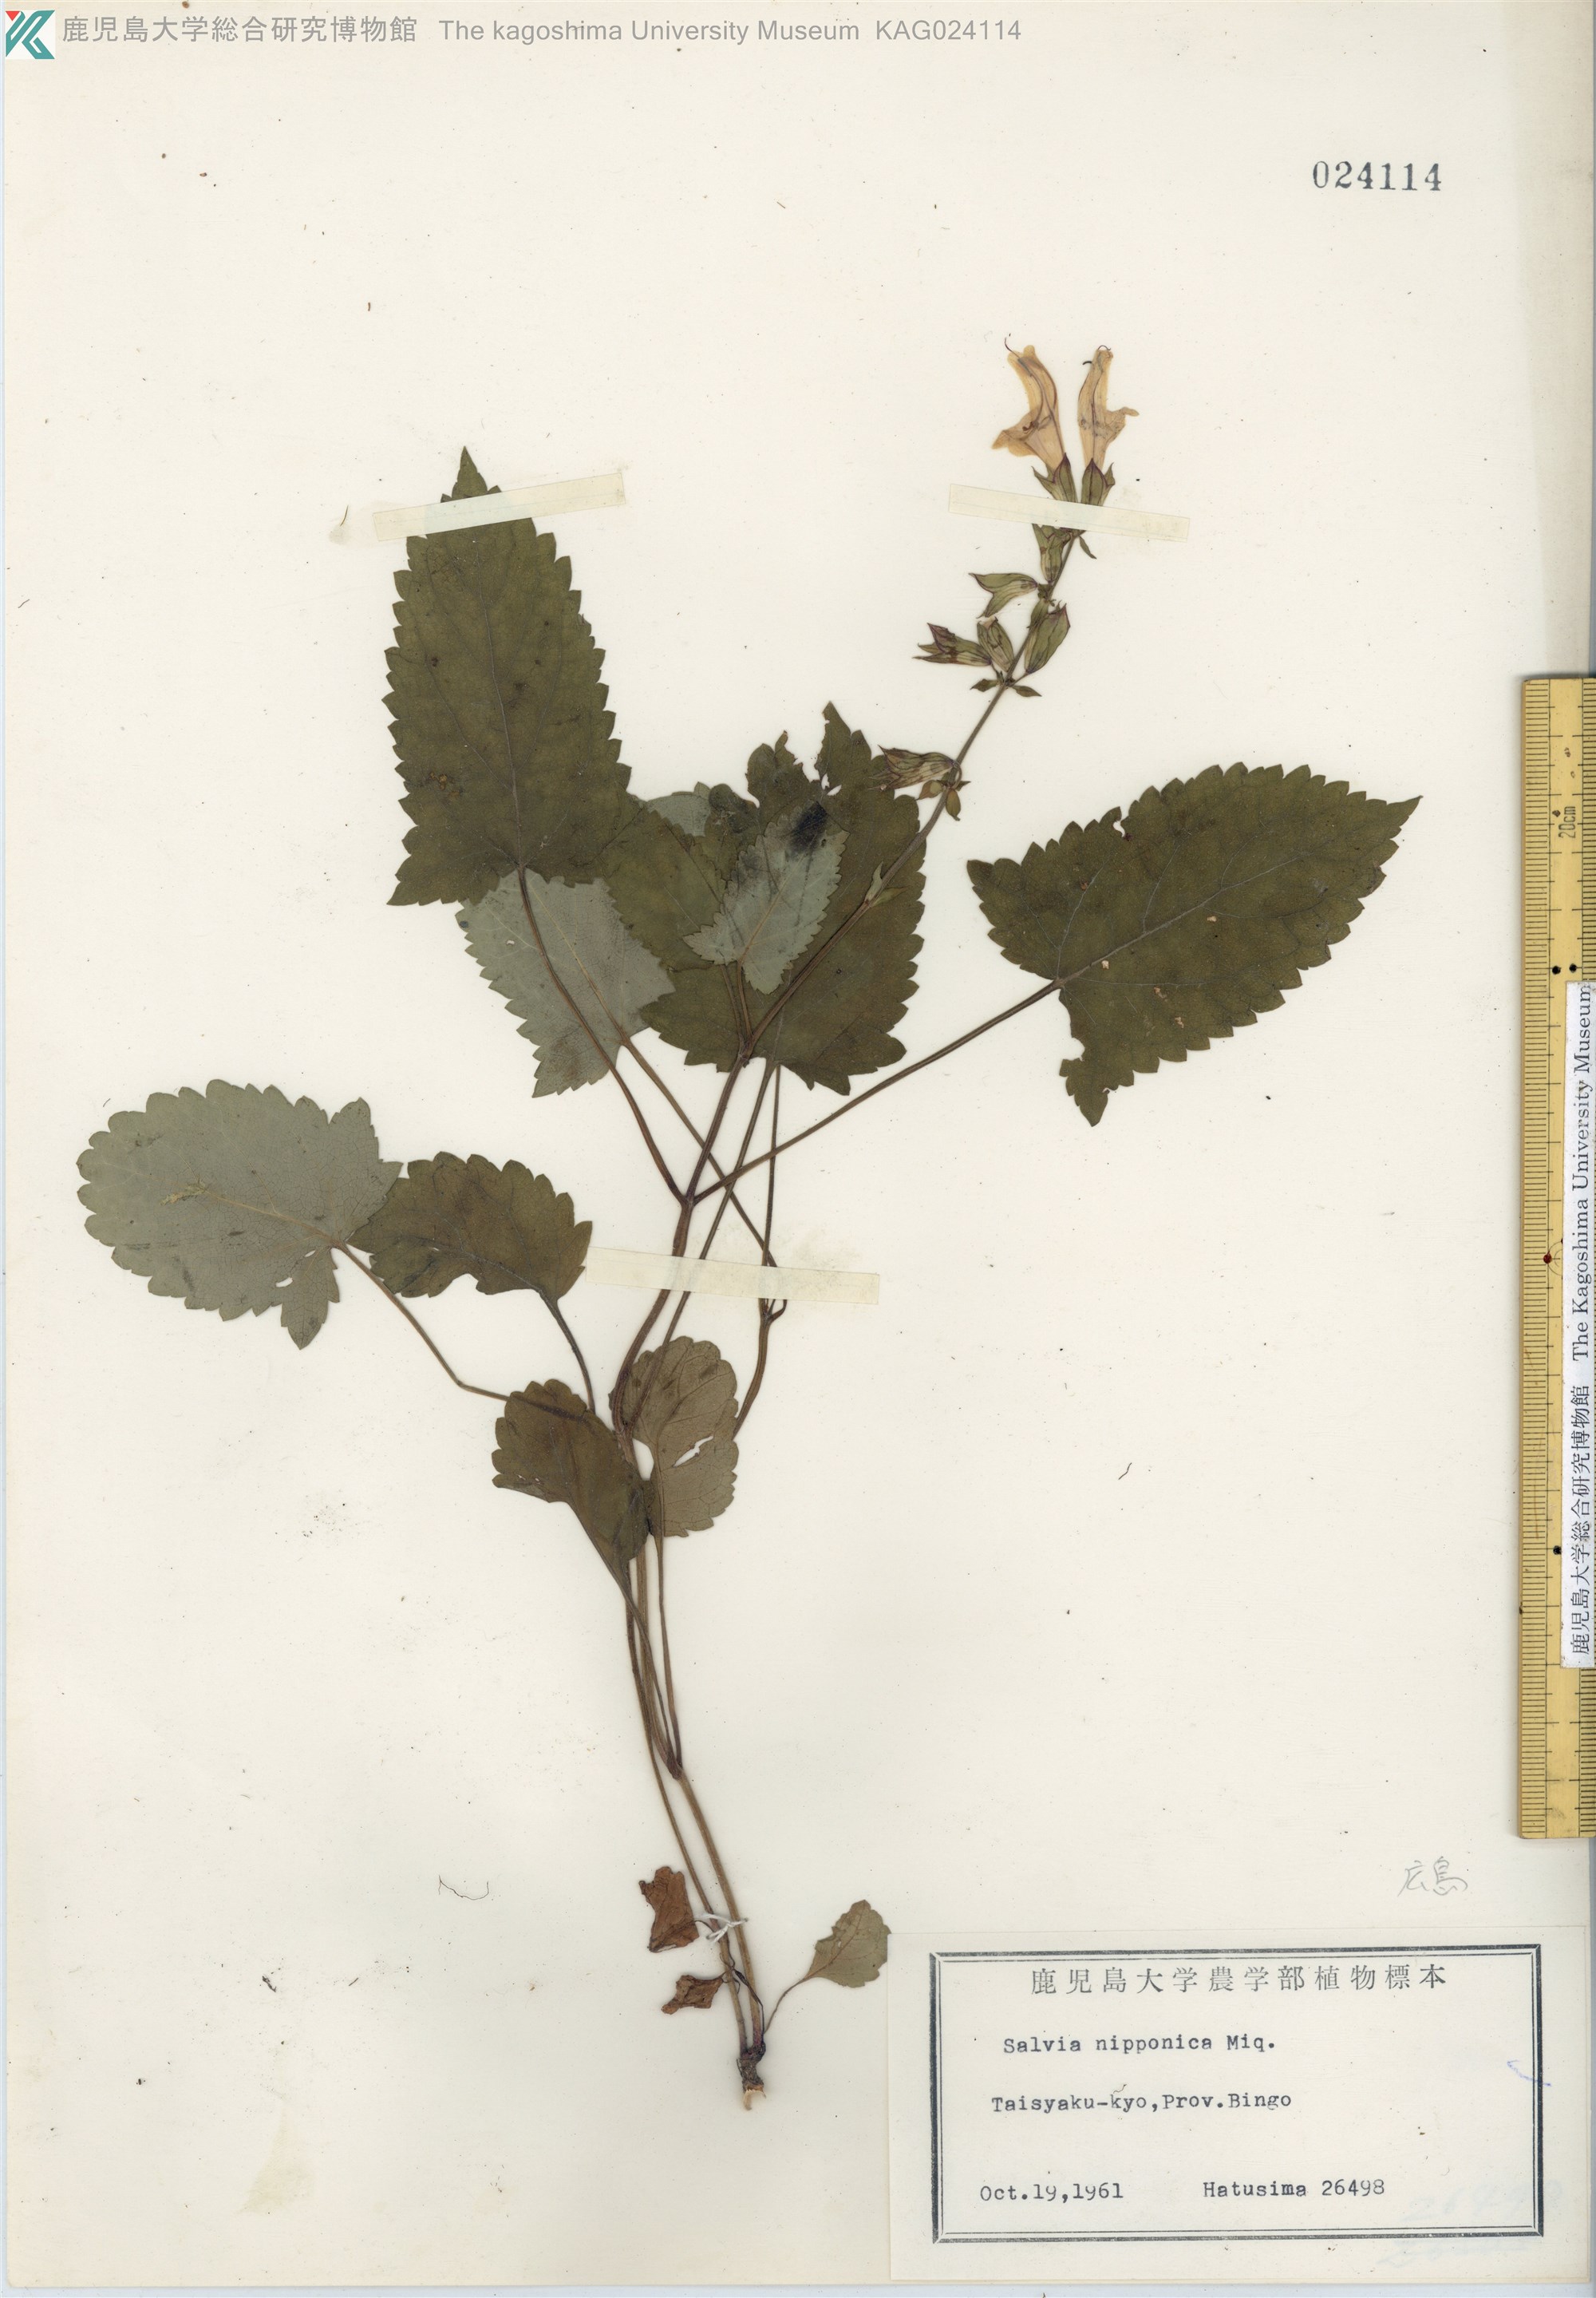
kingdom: Plantae
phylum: Tracheophyta
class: Magnoliopsida
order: Lamiales
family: Lamiaceae
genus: Salvia
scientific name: Salvia nipponica
